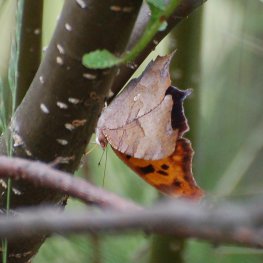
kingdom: Animalia
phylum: Arthropoda
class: Insecta
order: Lepidoptera
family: Nymphalidae
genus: Polygonia
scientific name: Polygonia interrogationis
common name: Question Mark
